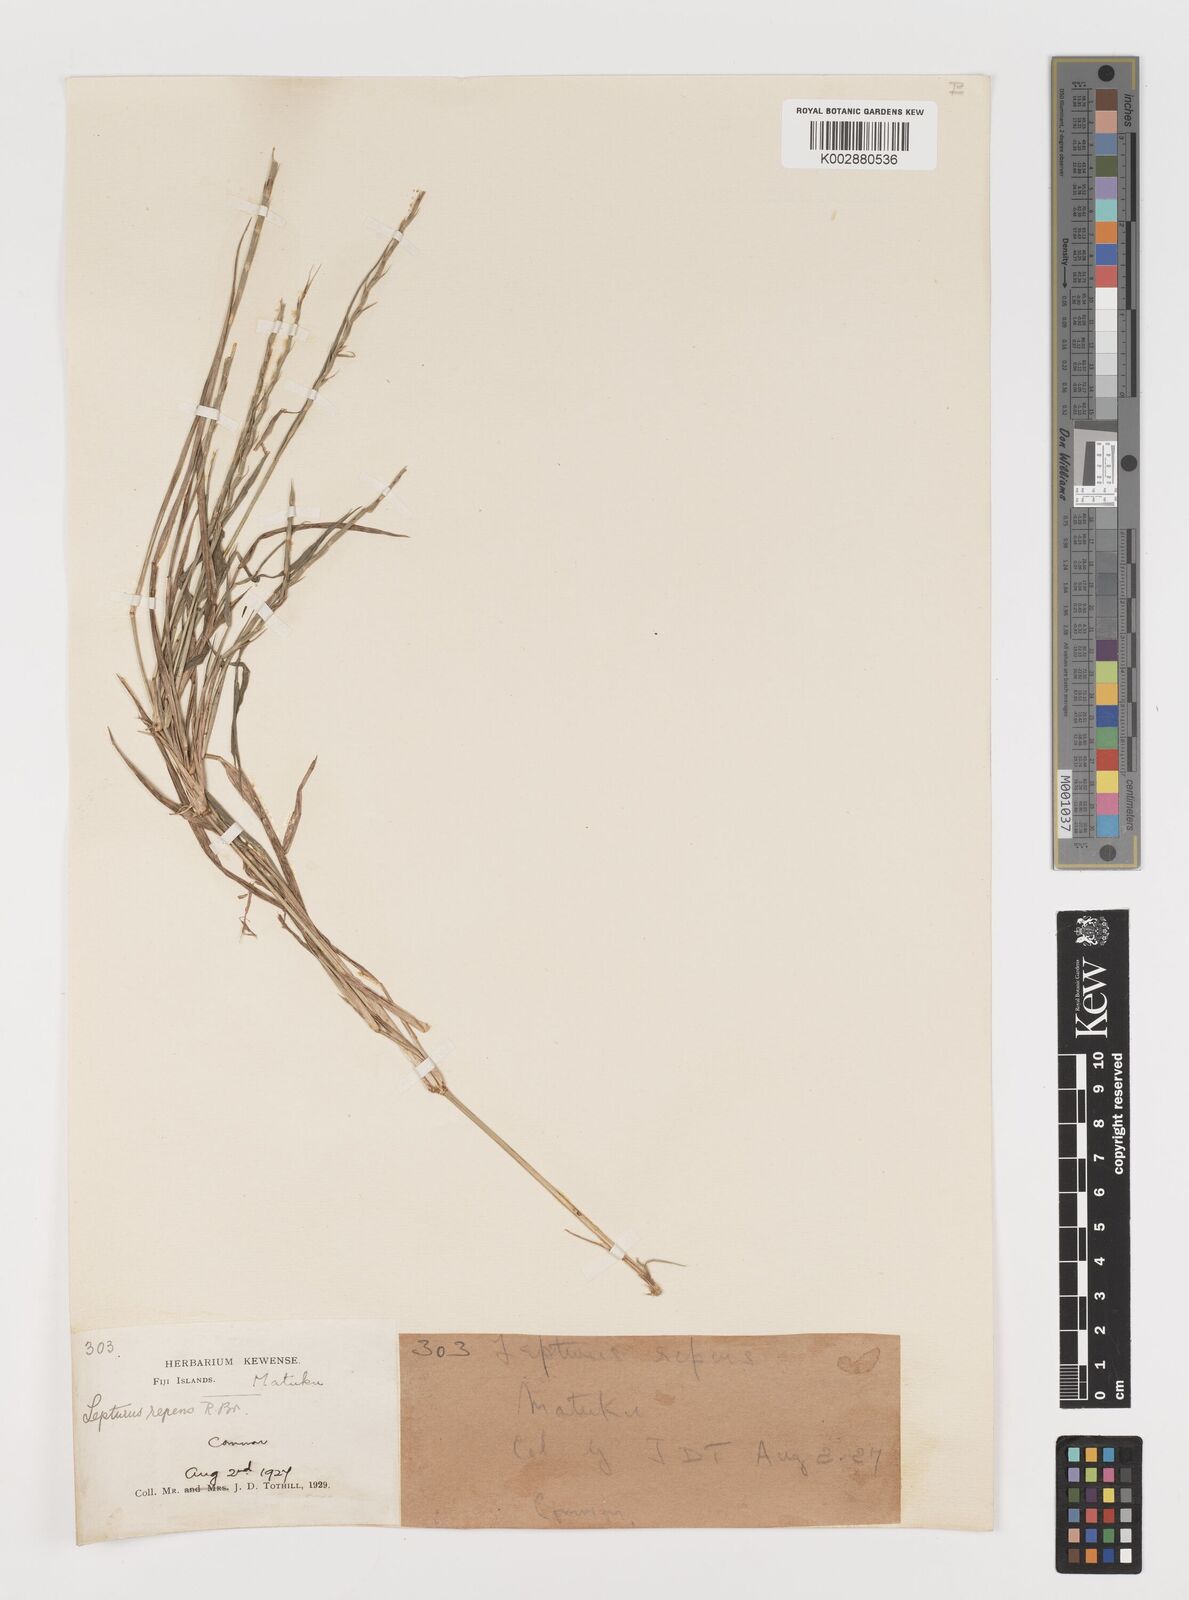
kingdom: Plantae
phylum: Tracheophyta
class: Liliopsida
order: Poales
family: Poaceae
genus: Lepturus
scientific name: Lepturus repens
